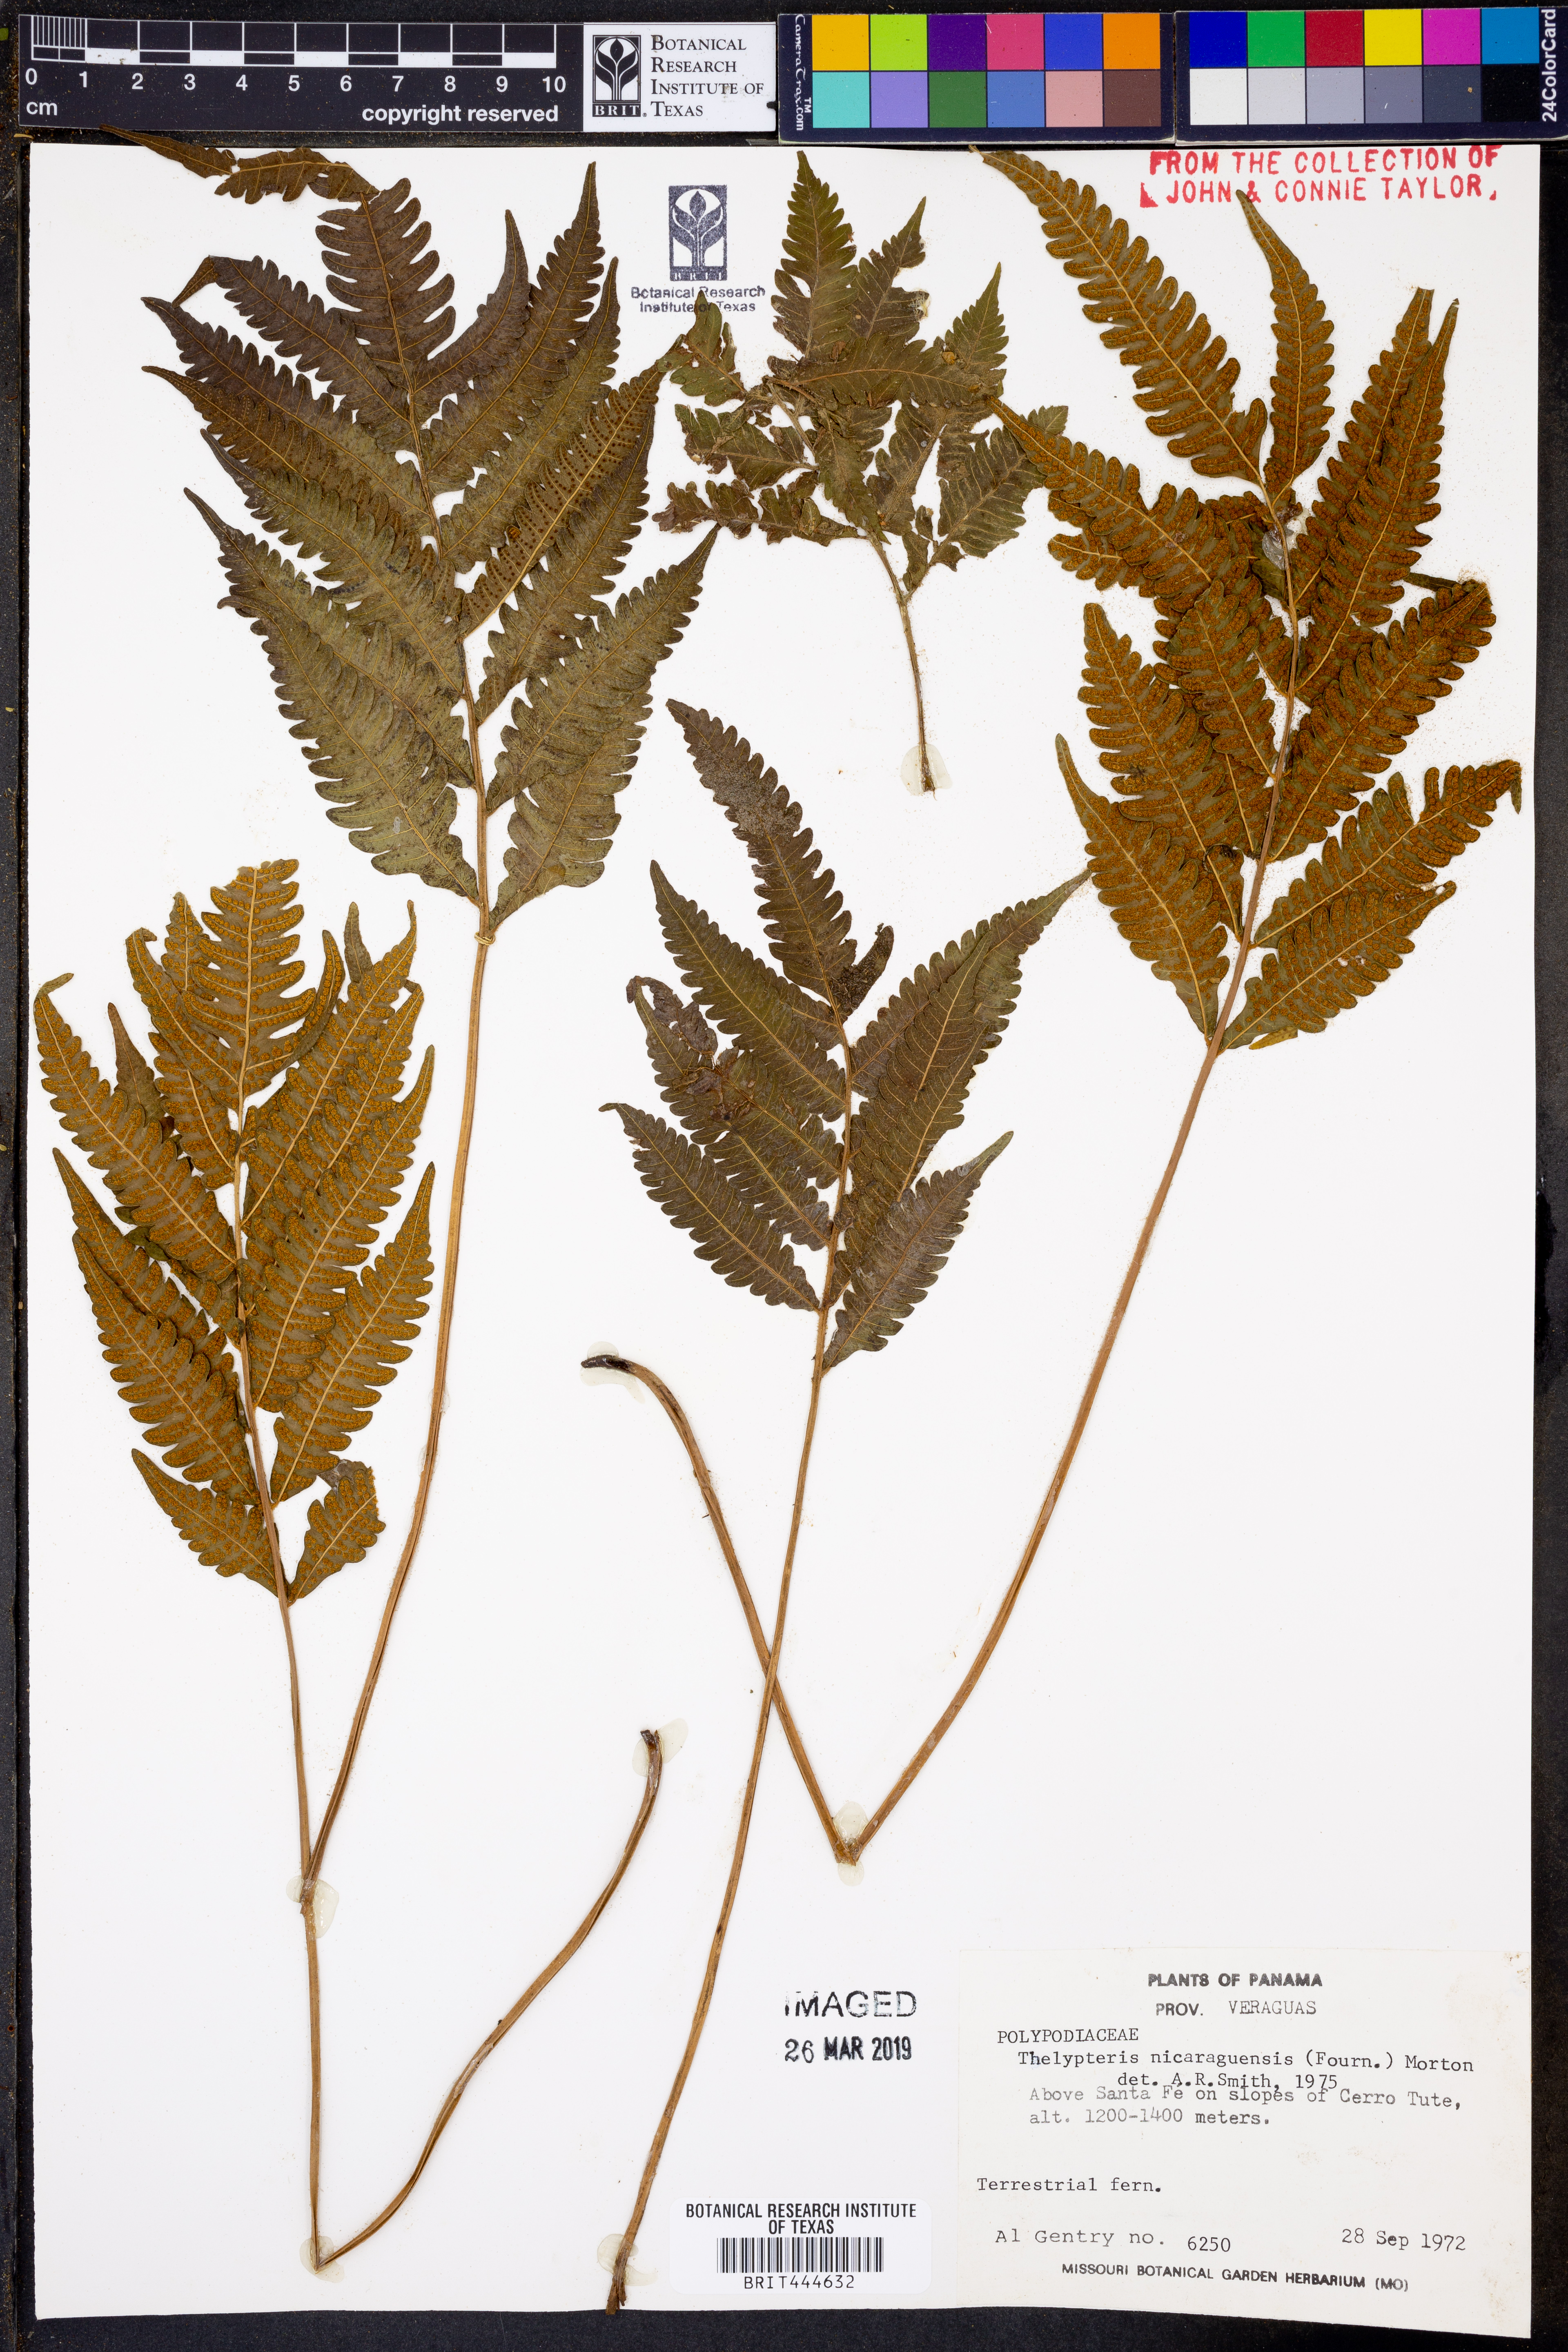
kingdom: Plantae
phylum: Tracheophyta
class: Polypodiopsida
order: Polypodiales
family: Thelypteridaceae
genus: Goniopteris
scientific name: Goniopteris nicaraguensis
